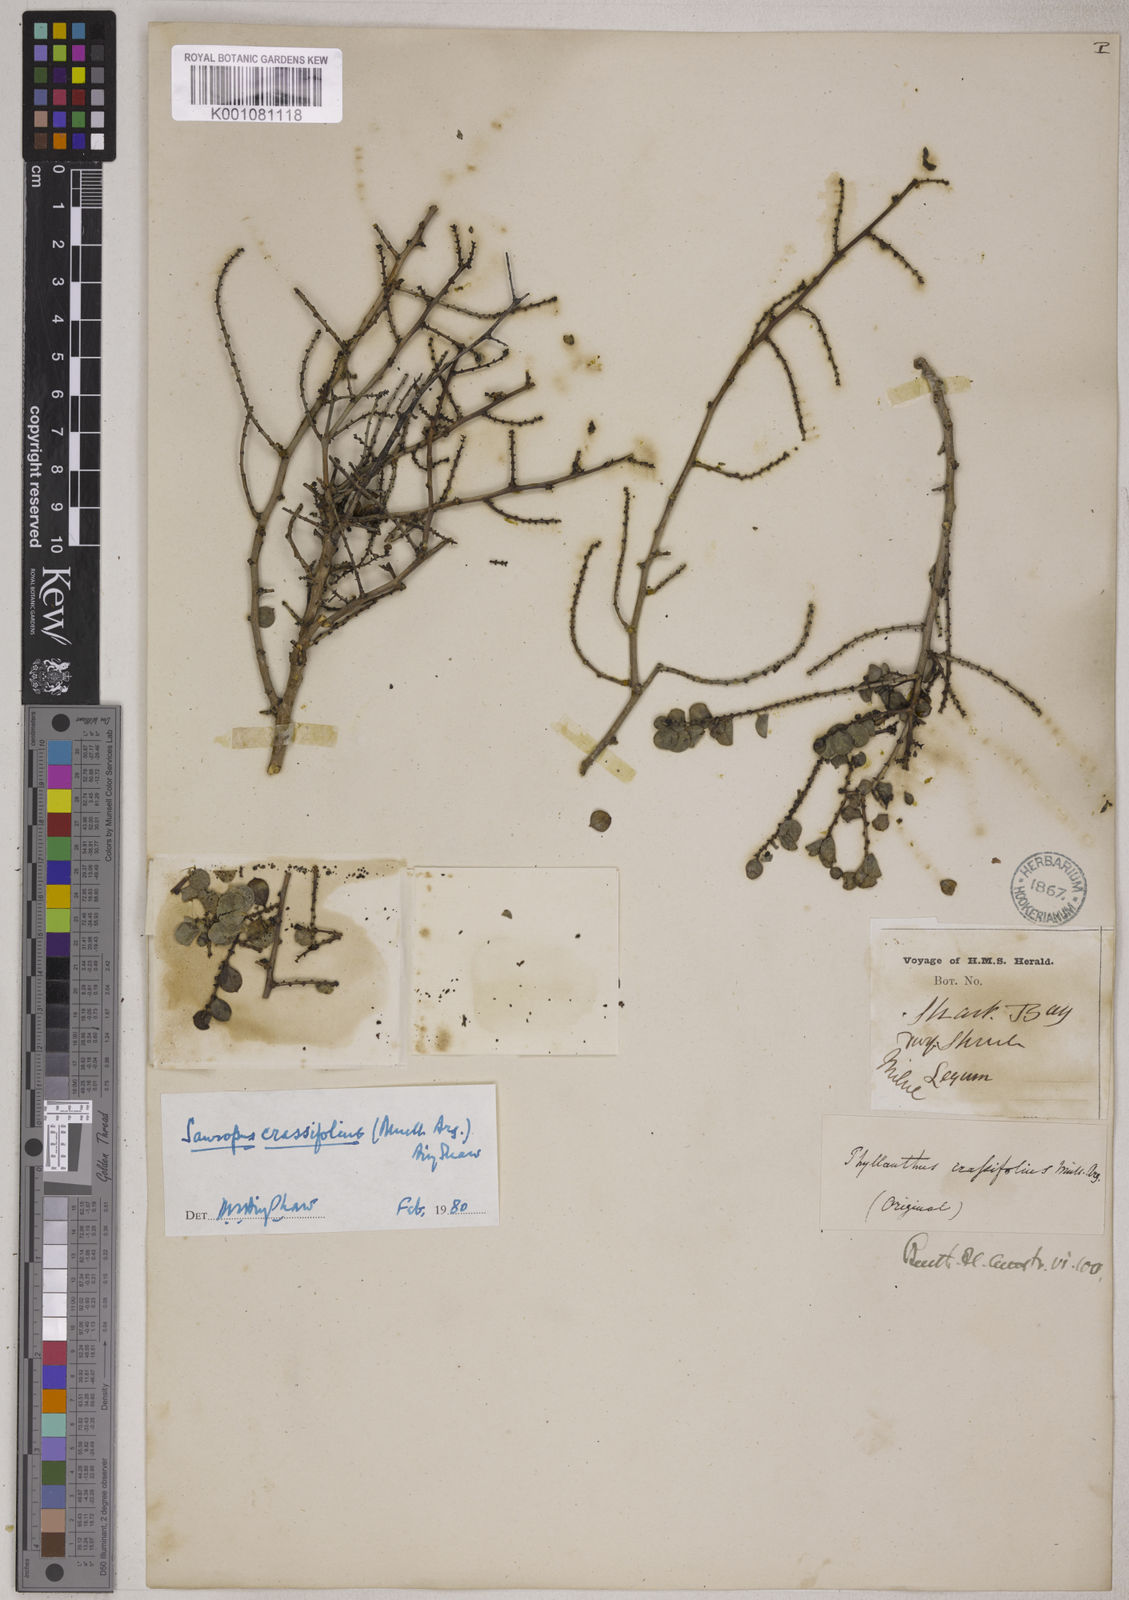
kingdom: Animalia
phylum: Chordata
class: Amphibia
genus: Sauropus
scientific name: Sauropus
